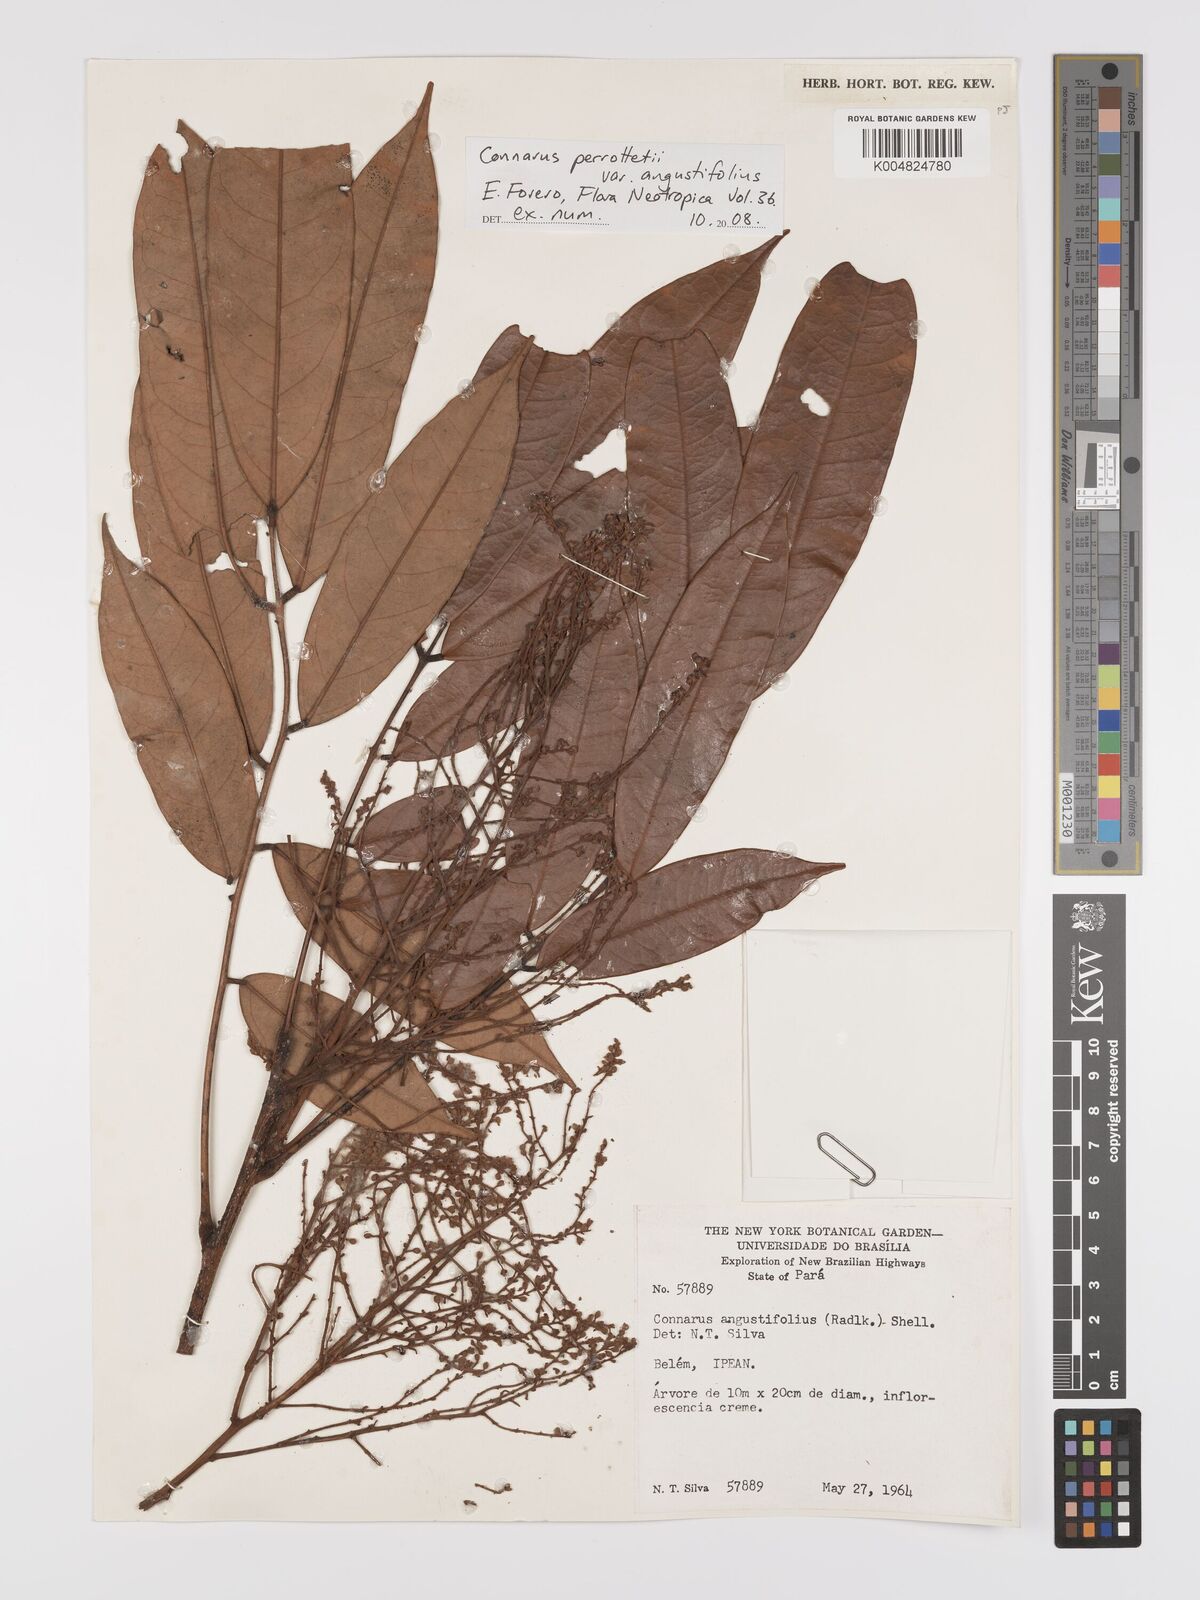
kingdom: Plantae
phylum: Tracheophyta
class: Magnoliopsida
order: Oxalidales
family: Connaraceae
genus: Connarus
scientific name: Connarus perrottetii
